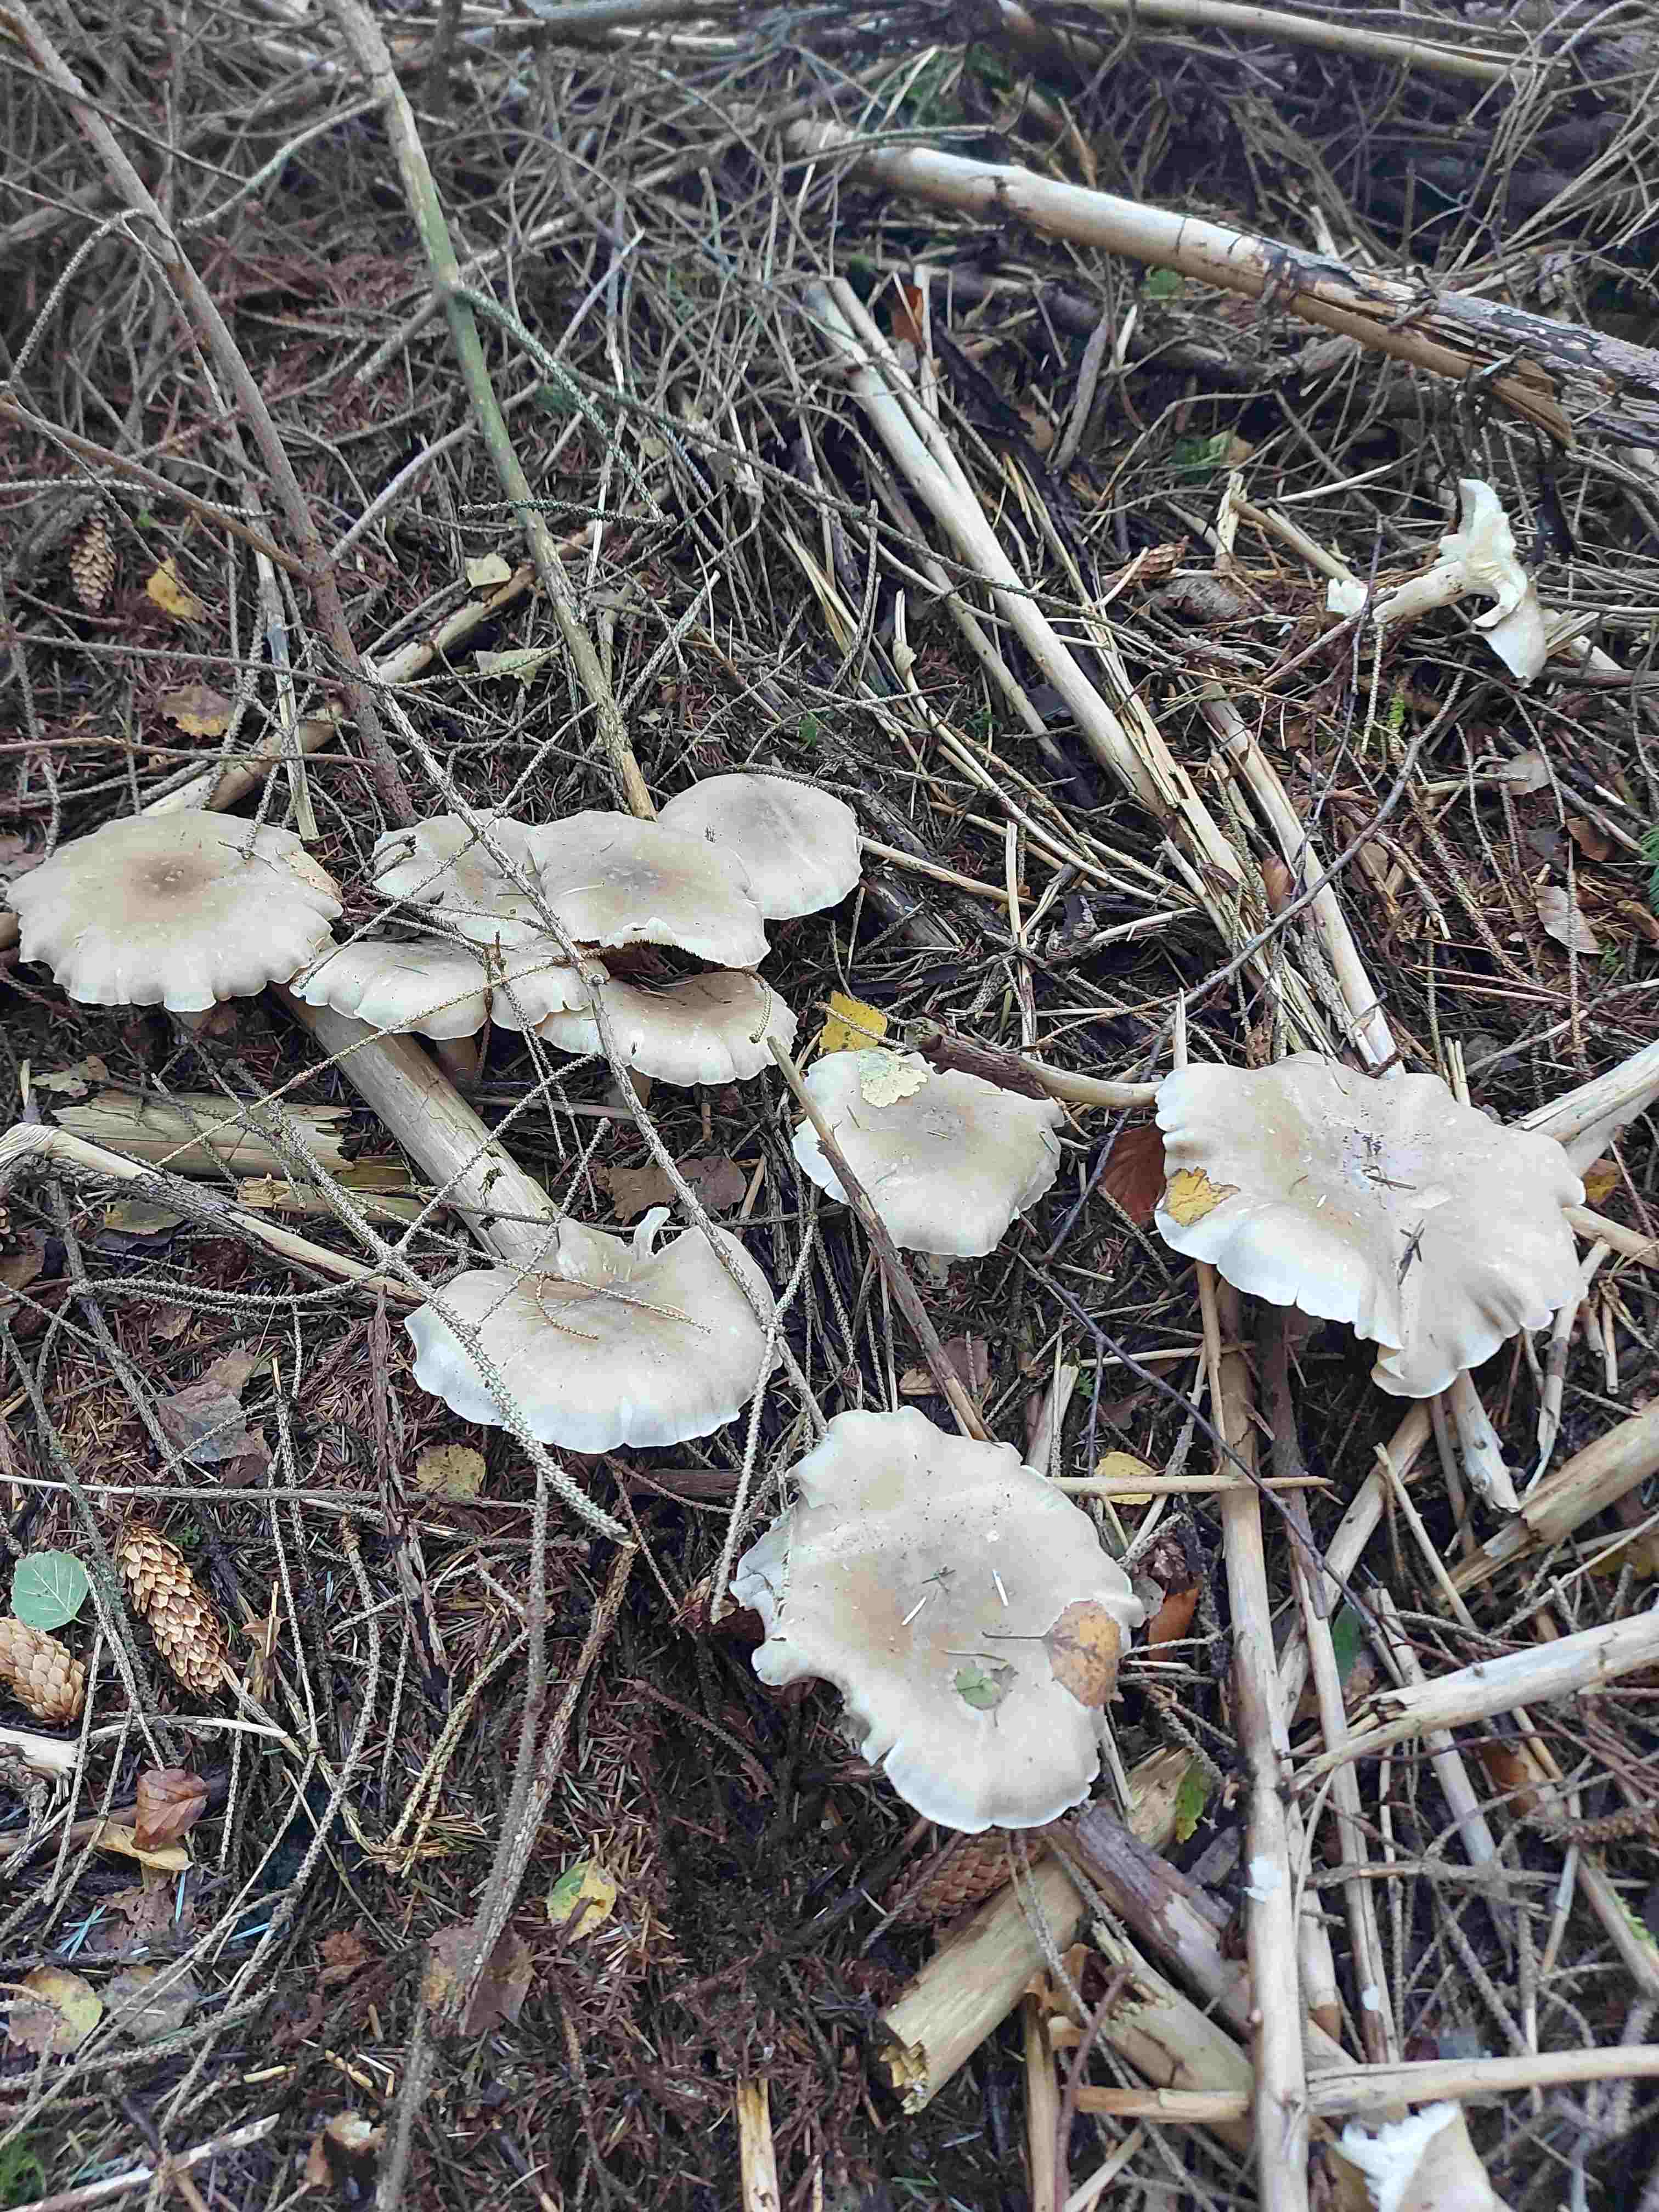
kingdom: Fungi
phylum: Basidiomycota
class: Agaricomycetes
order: Agaricales
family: Tricholomataceae
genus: Clitocybe
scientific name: Clitocybe nebularis
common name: tåge-tragthat
